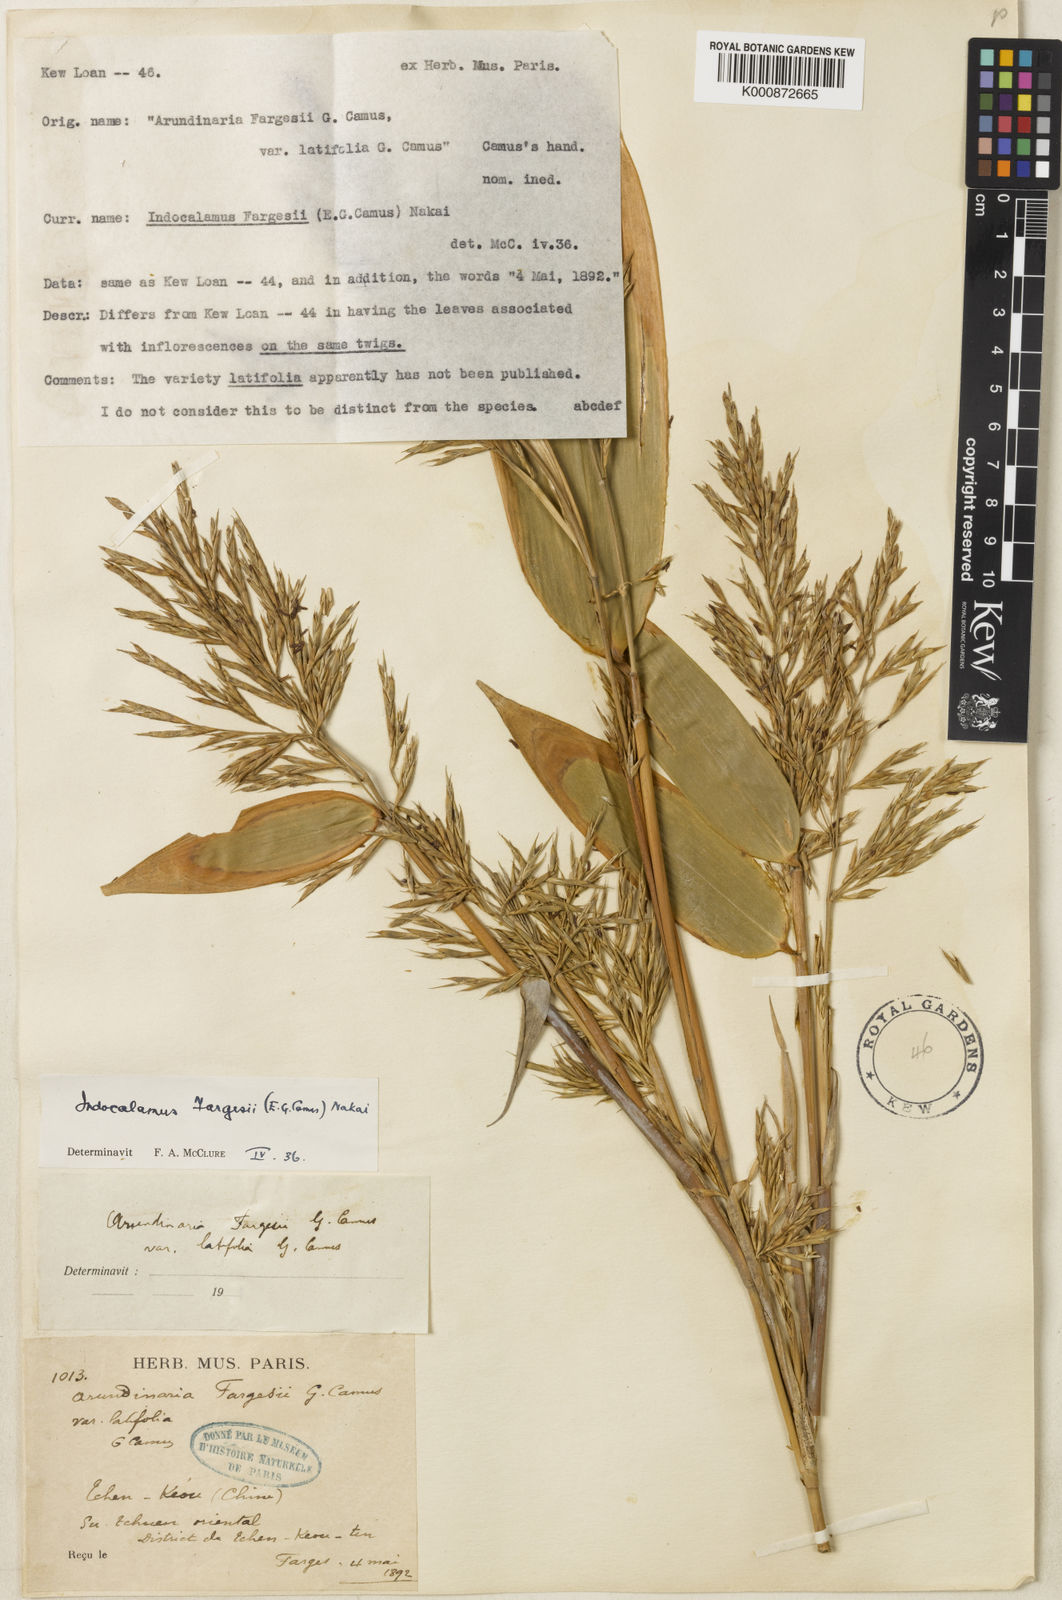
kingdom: Plantae
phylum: Tracheophyta
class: Liliopsida
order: Poales
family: Poaceae
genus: Bashania
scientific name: Bashania fargesii
